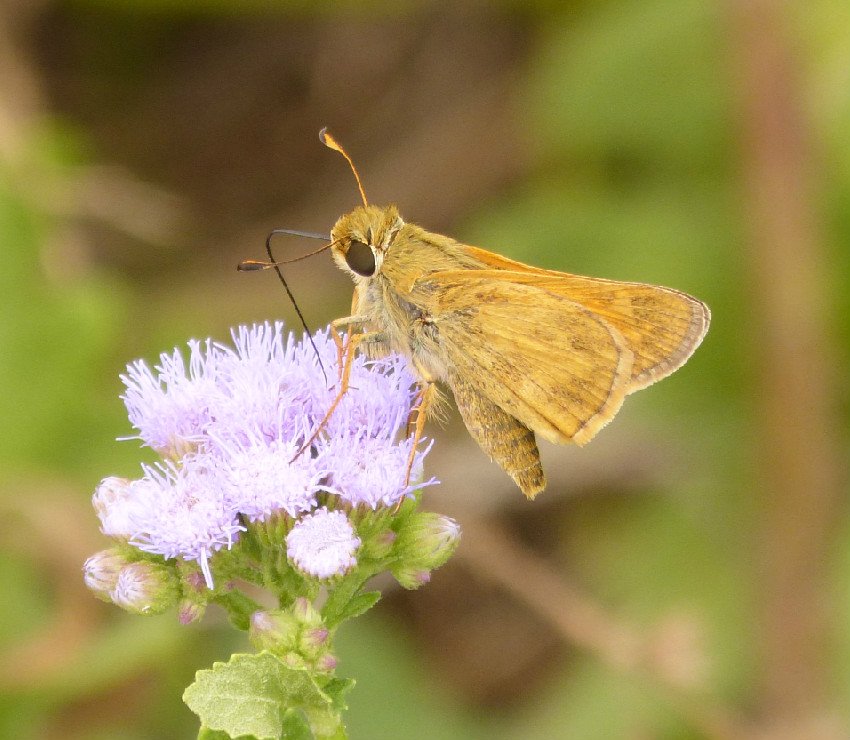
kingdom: Animalia
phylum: Arthropoda
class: Insecta
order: Lepidoptera
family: Hesperiidae
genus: Atalopedes
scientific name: Atalopedes campestris
